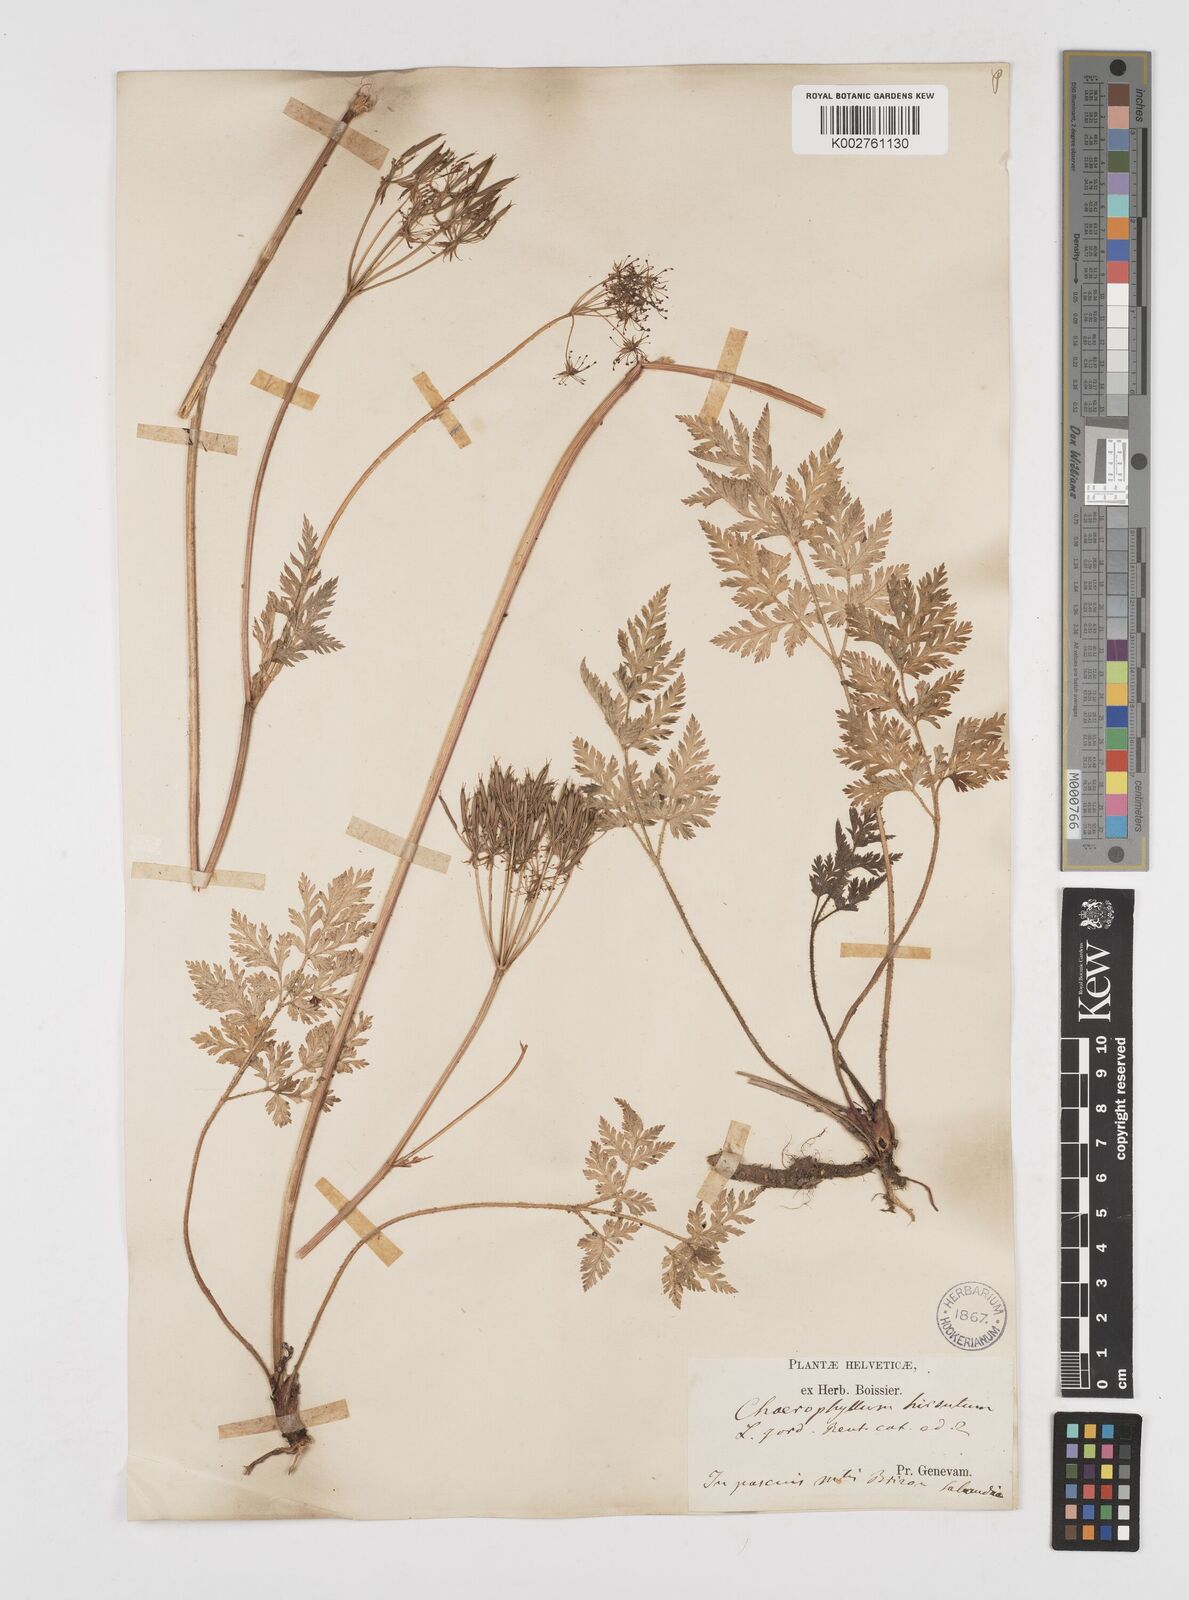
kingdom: Plantae
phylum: Tracheophyta
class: Magnoliopsida
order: Apiales
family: Apiaceae
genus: Chaerophyllum
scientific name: Chaerophyllum hirsutum
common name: Hairy chervil
